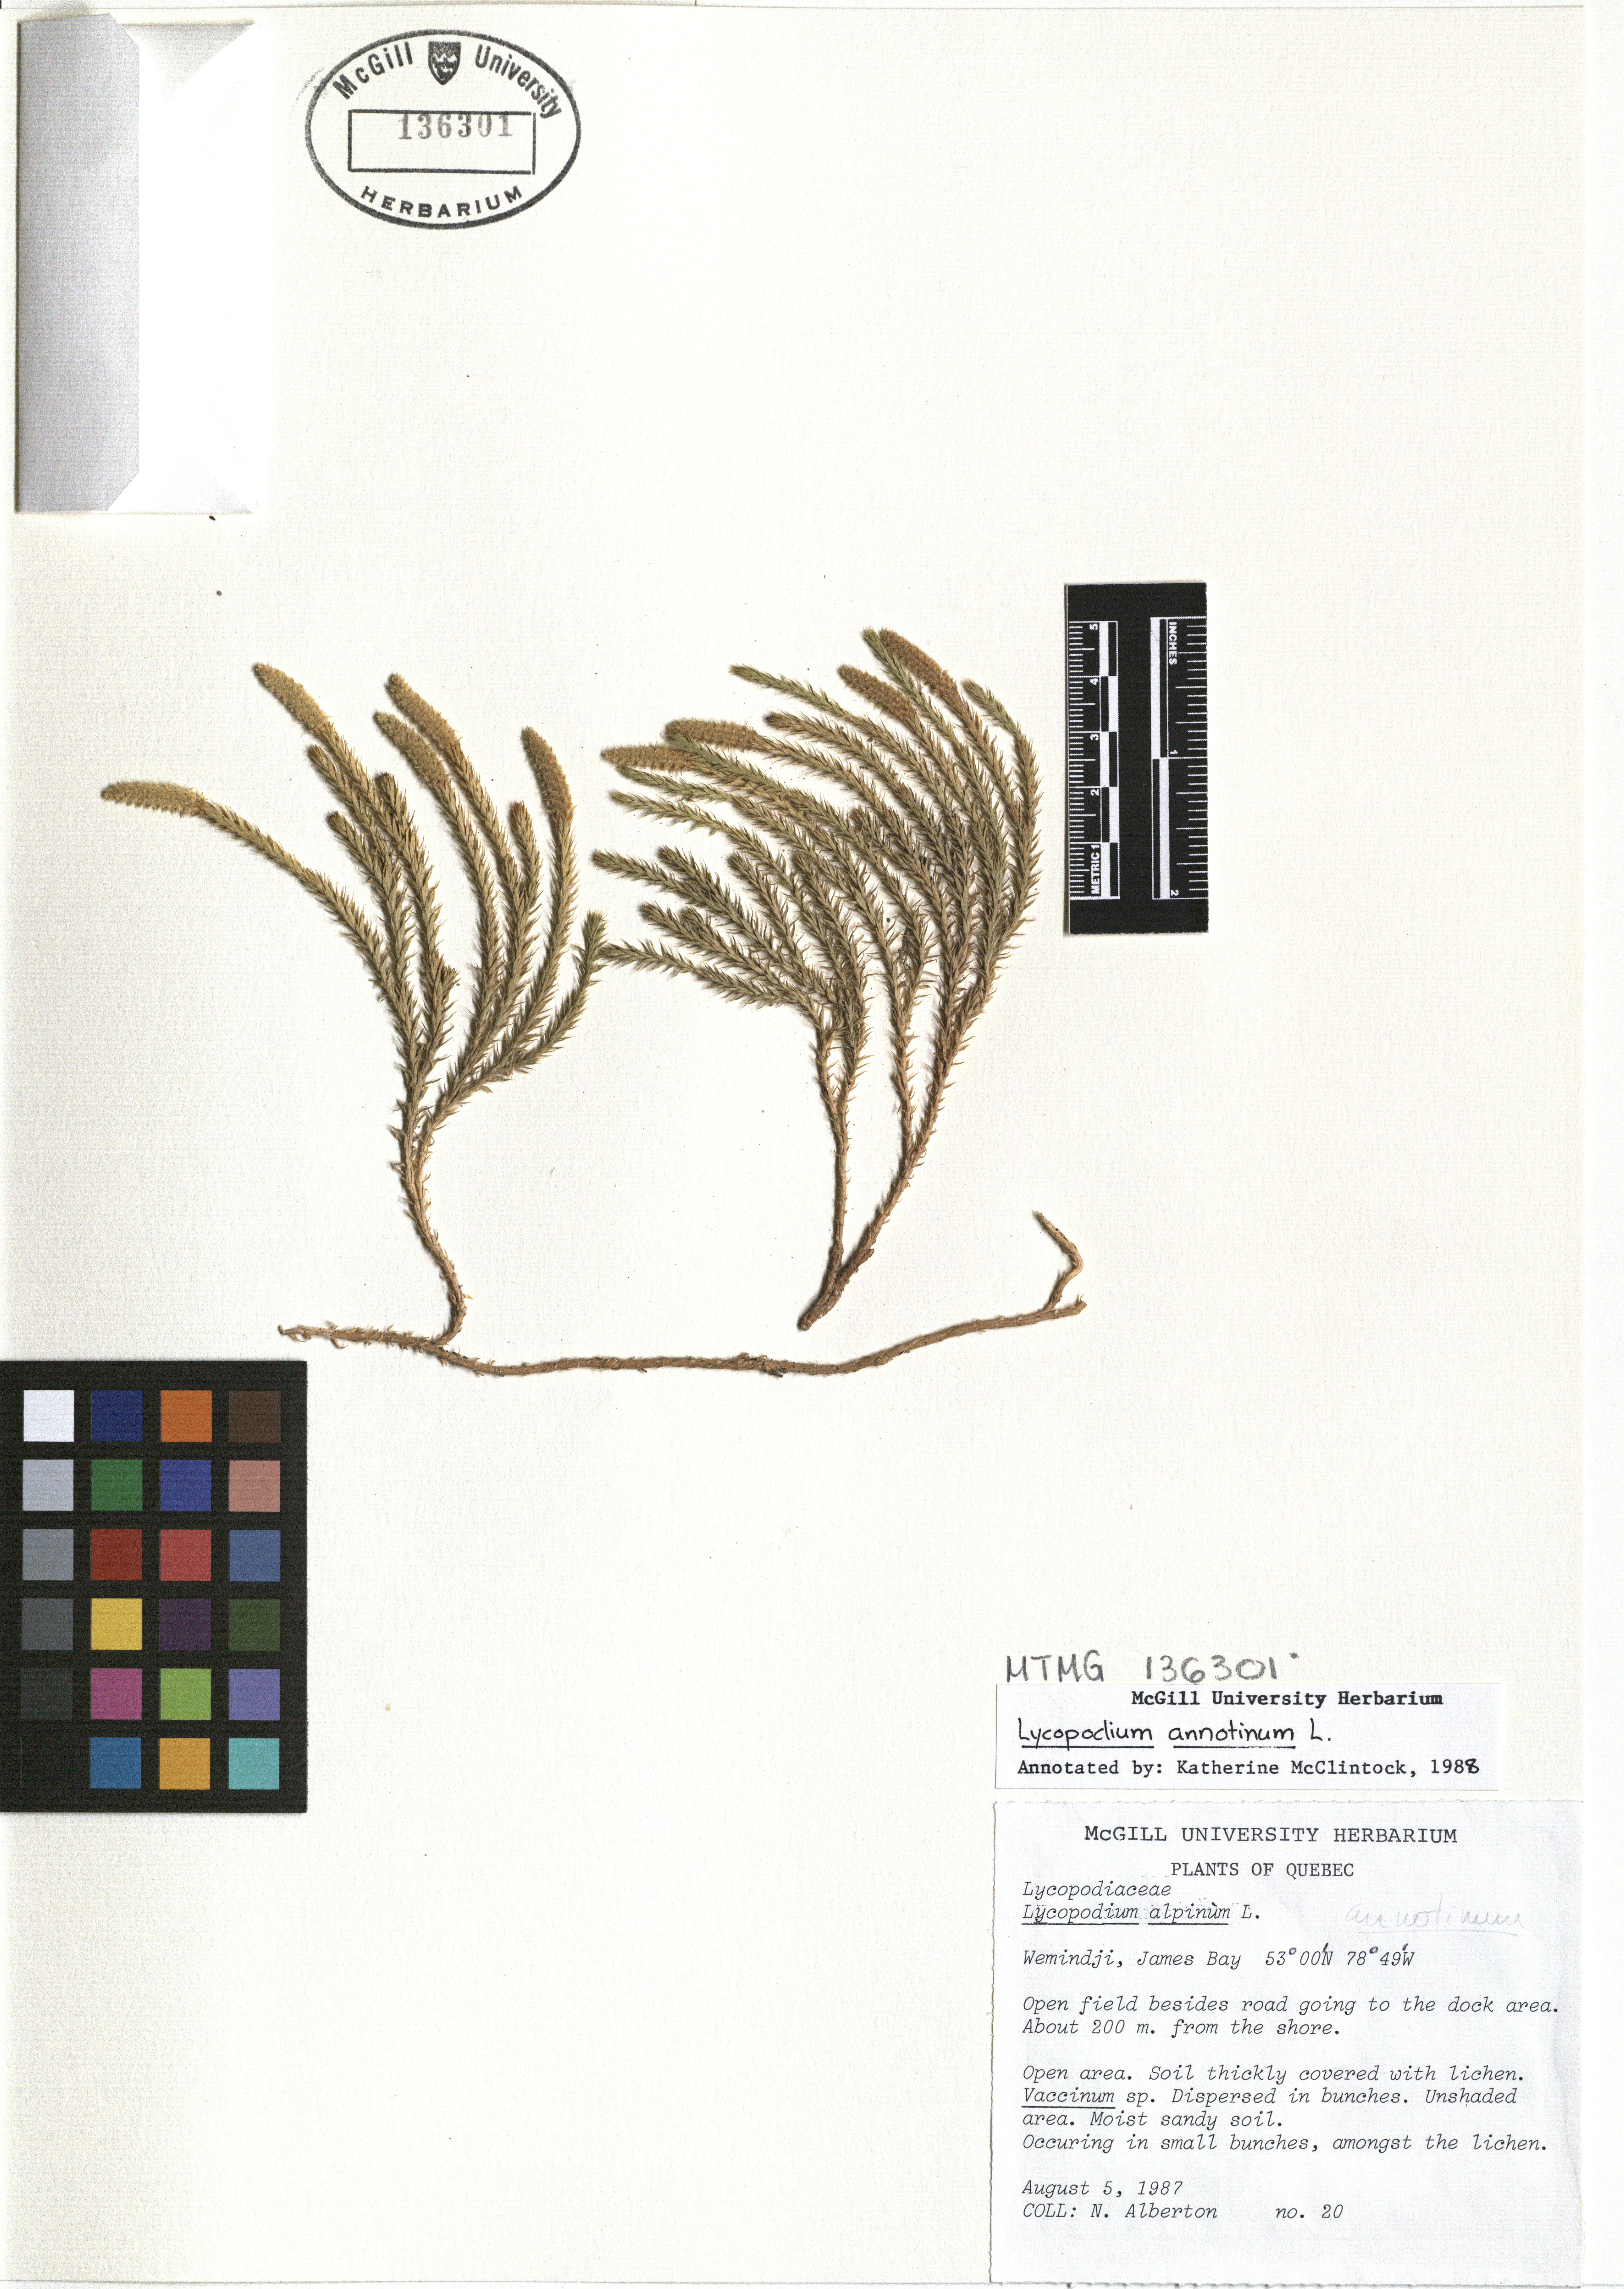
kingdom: Plantae
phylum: Tracheophyta
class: Lycopodiopsida
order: Lycopodiales
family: Lycopodiaceae
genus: Spinulum
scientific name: Spinulum annotinum
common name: Interrupted club-moss
